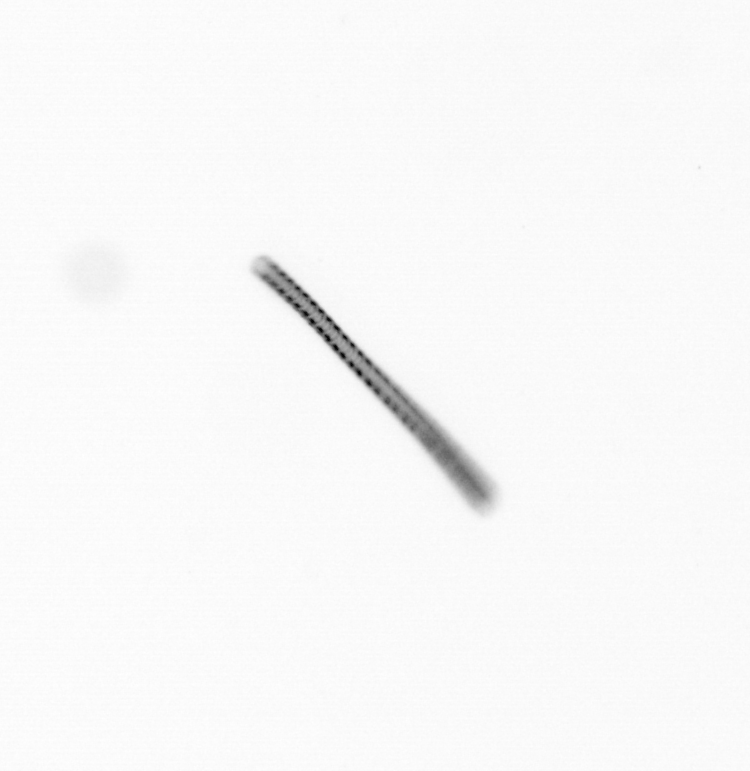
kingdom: Chromista
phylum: Ochrophyta
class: Bacillariophyceae
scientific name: Bacillariophyceae
